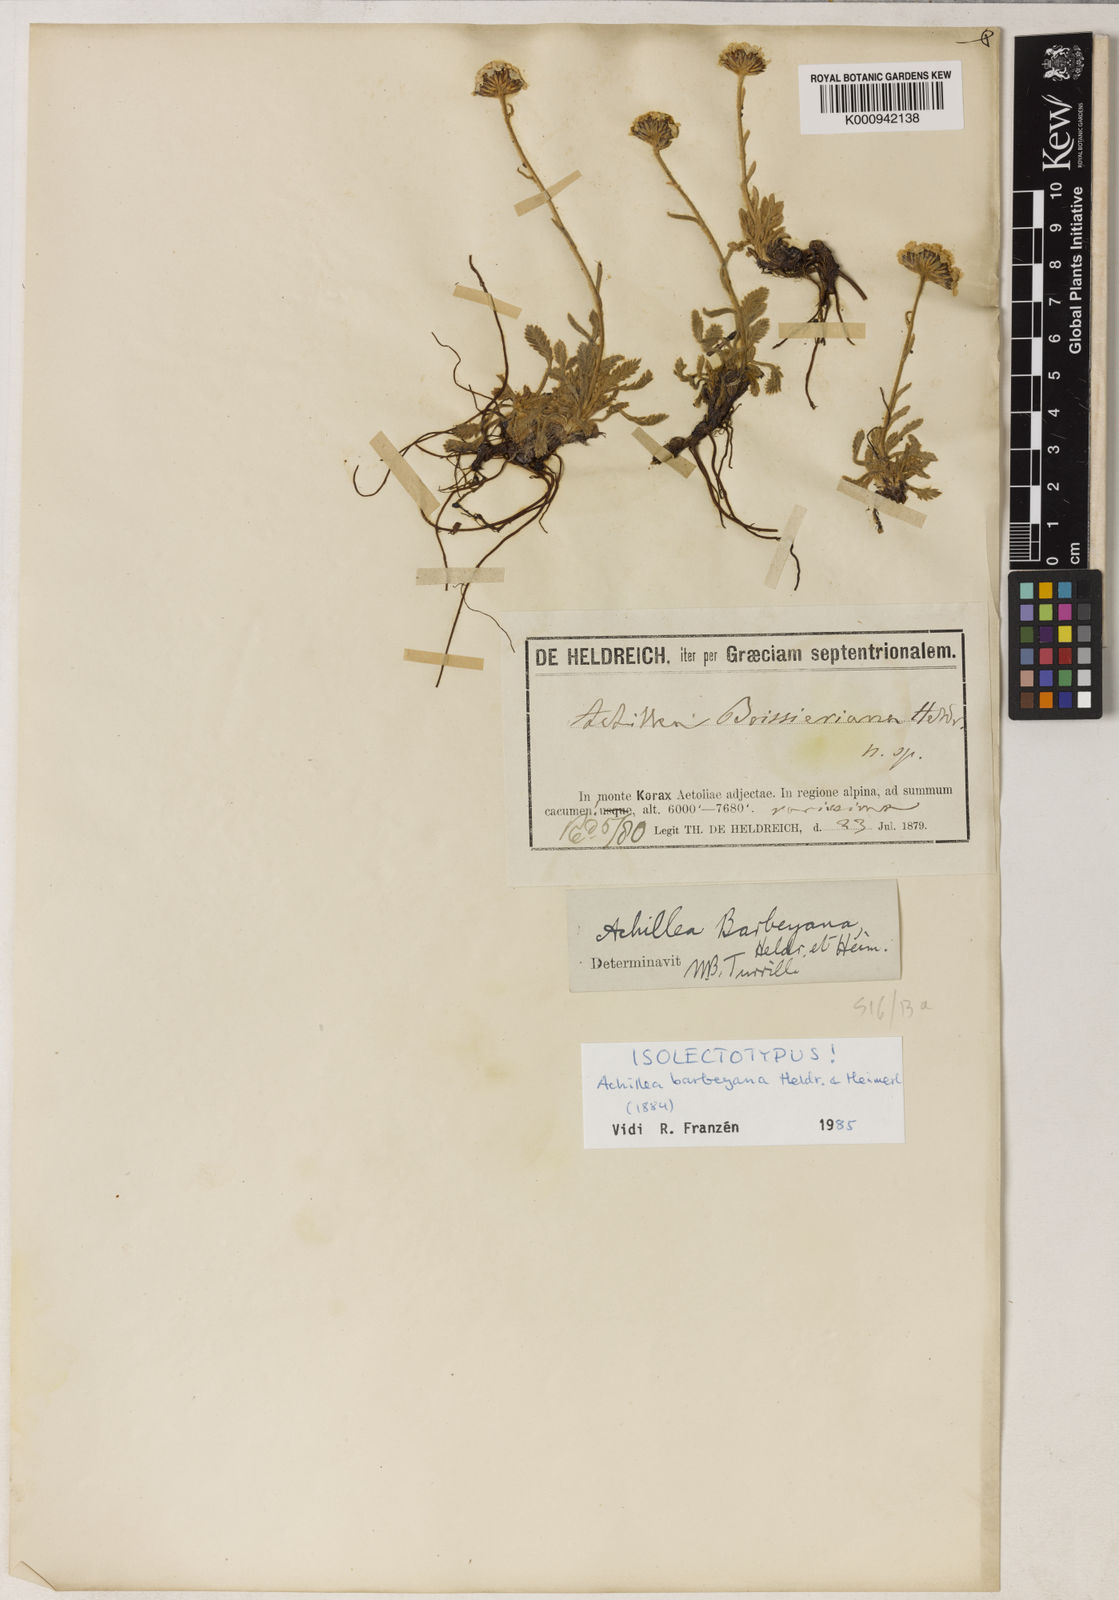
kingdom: Plantae
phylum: Tracheophyta
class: Magnoliopsida
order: Asterales
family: Asteraceae
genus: Achillea
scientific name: Achillea barbeyana
